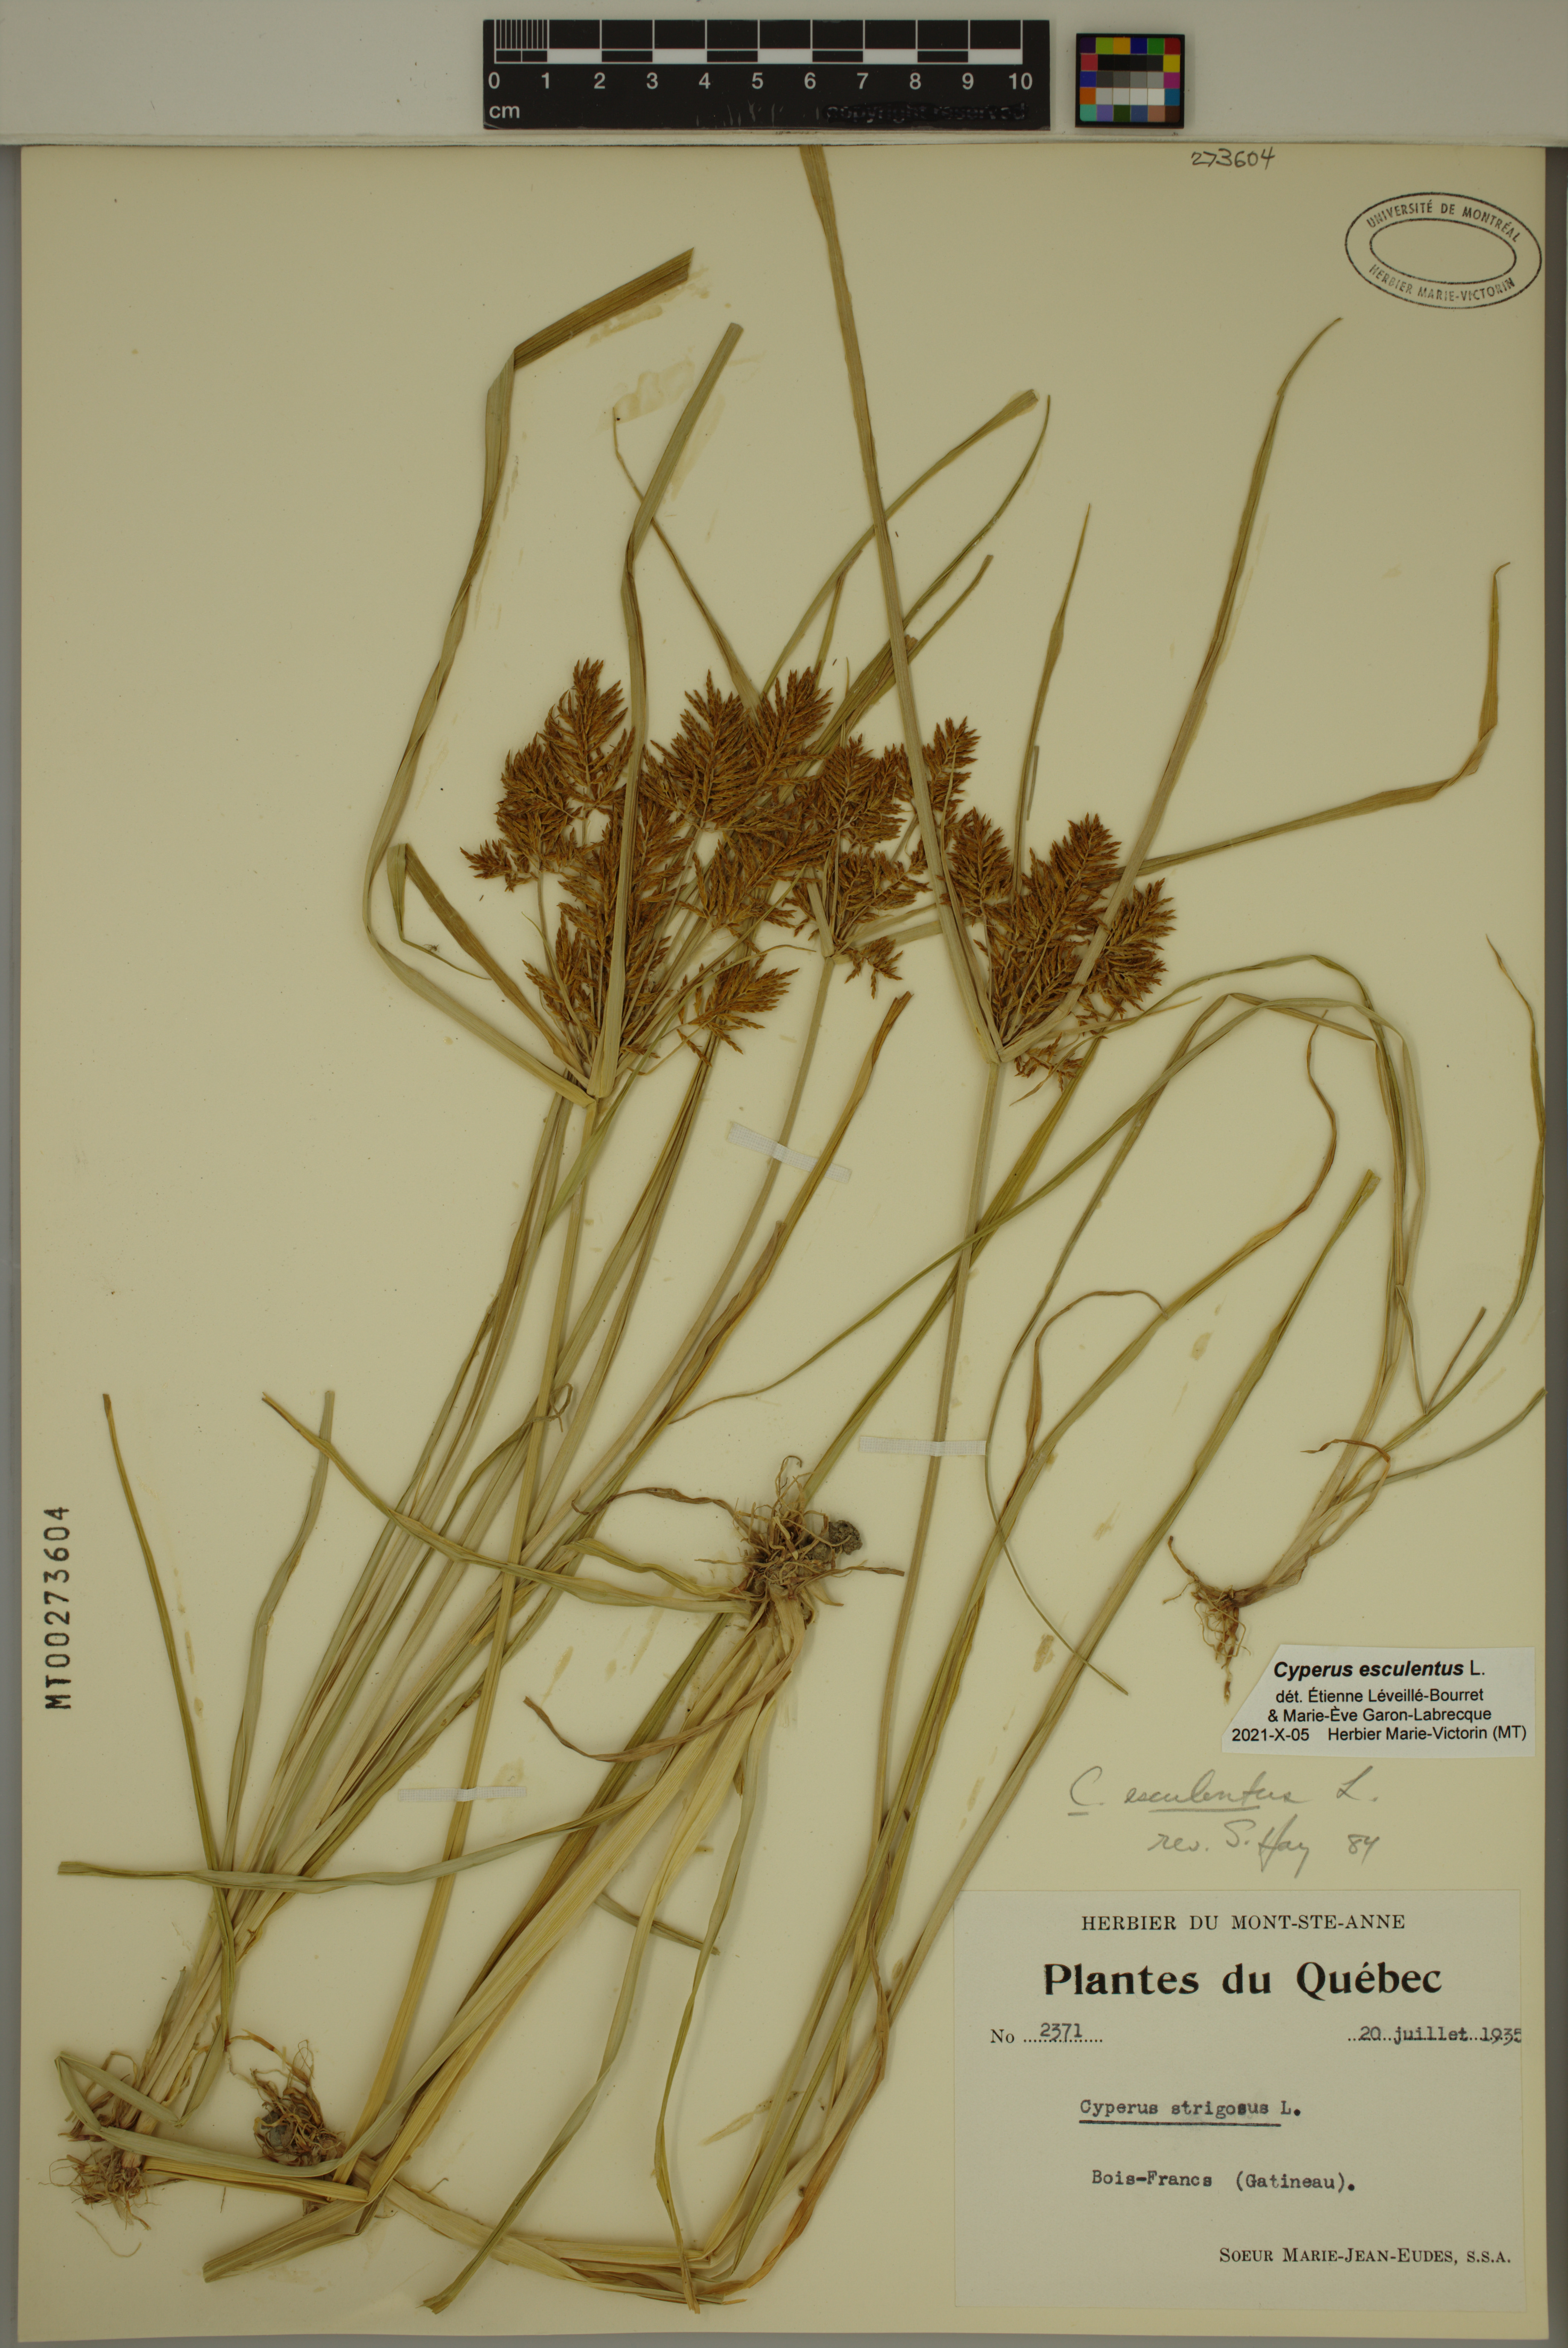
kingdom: Plantae
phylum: Tracheophyta
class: Liliopsida
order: Poales
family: Cyperaceae
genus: Cyperus
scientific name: Cyperus esculentus
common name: Yellow nutsedge
